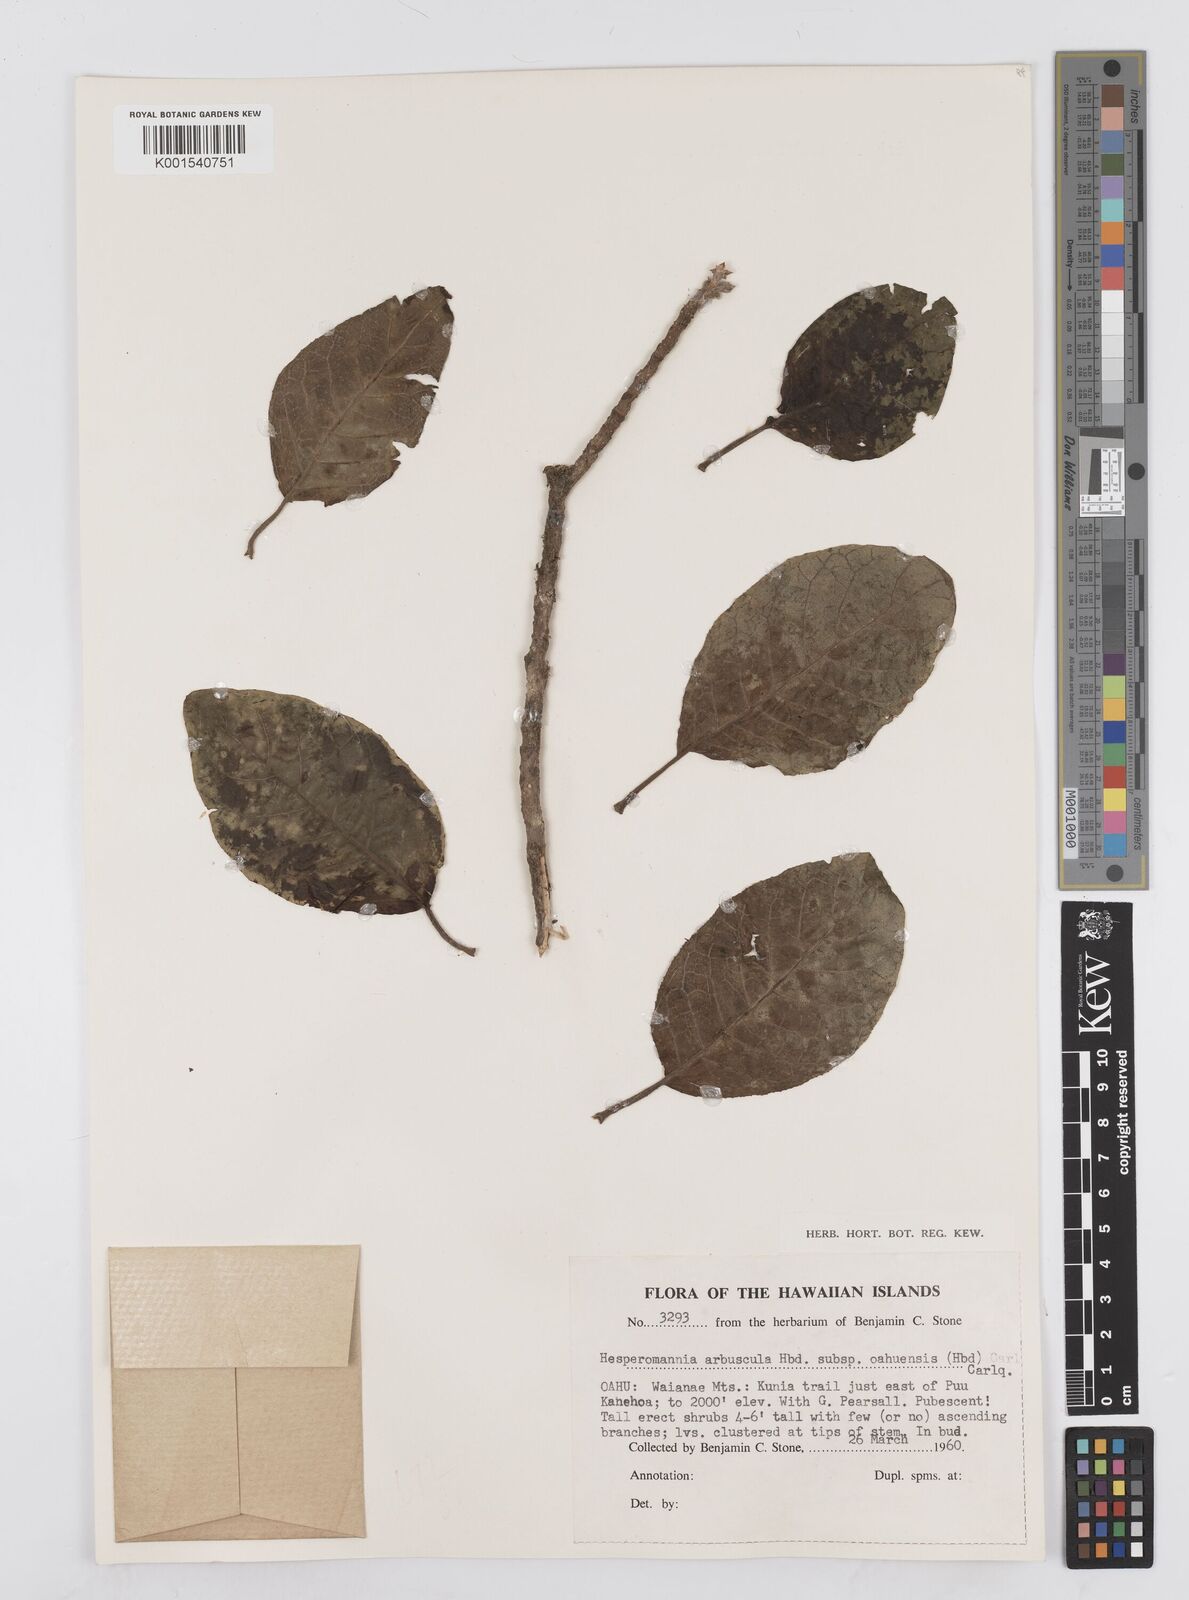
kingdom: Plantae
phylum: Tracheophyta
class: Magnoliopsida
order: Asterales
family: Asteraceae
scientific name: Asteraceae
